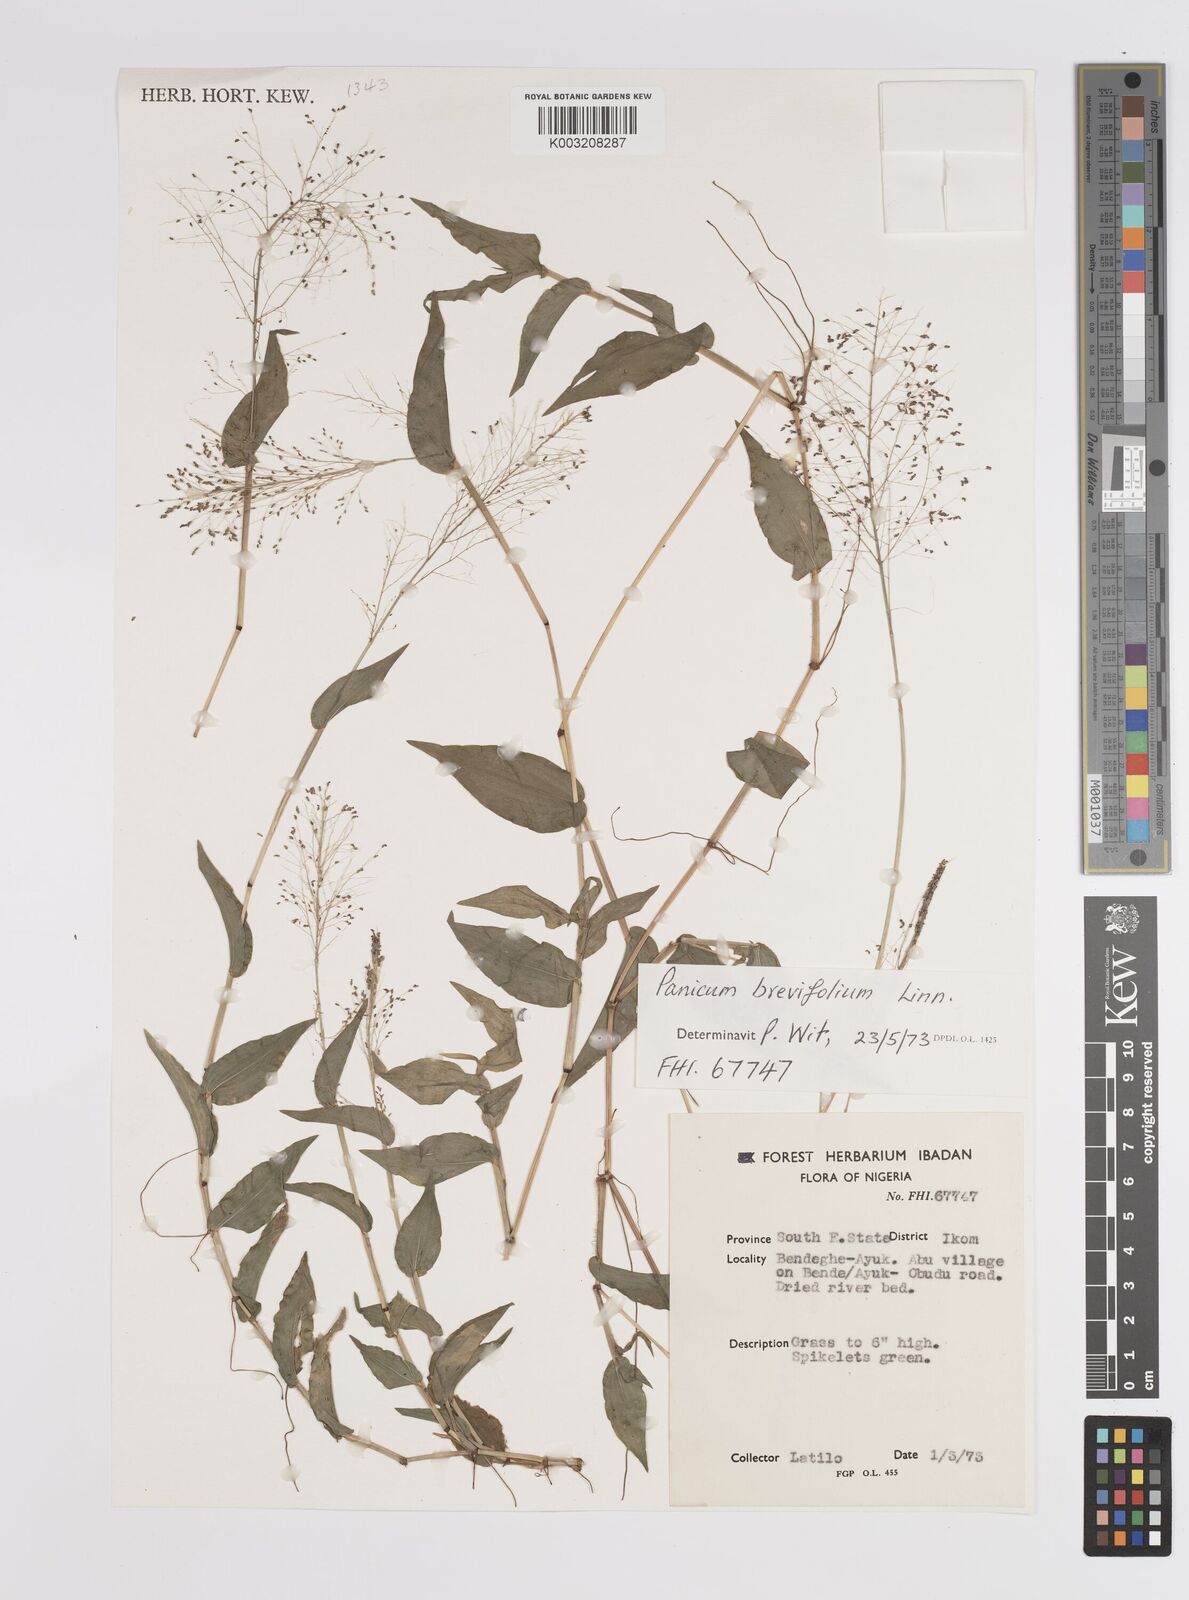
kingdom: Plantae
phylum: Tracheophyta
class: Liliopsida
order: Poales
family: Poaceae
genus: Panicum
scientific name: Panicum brevifolium
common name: Shortleaf panic grass
